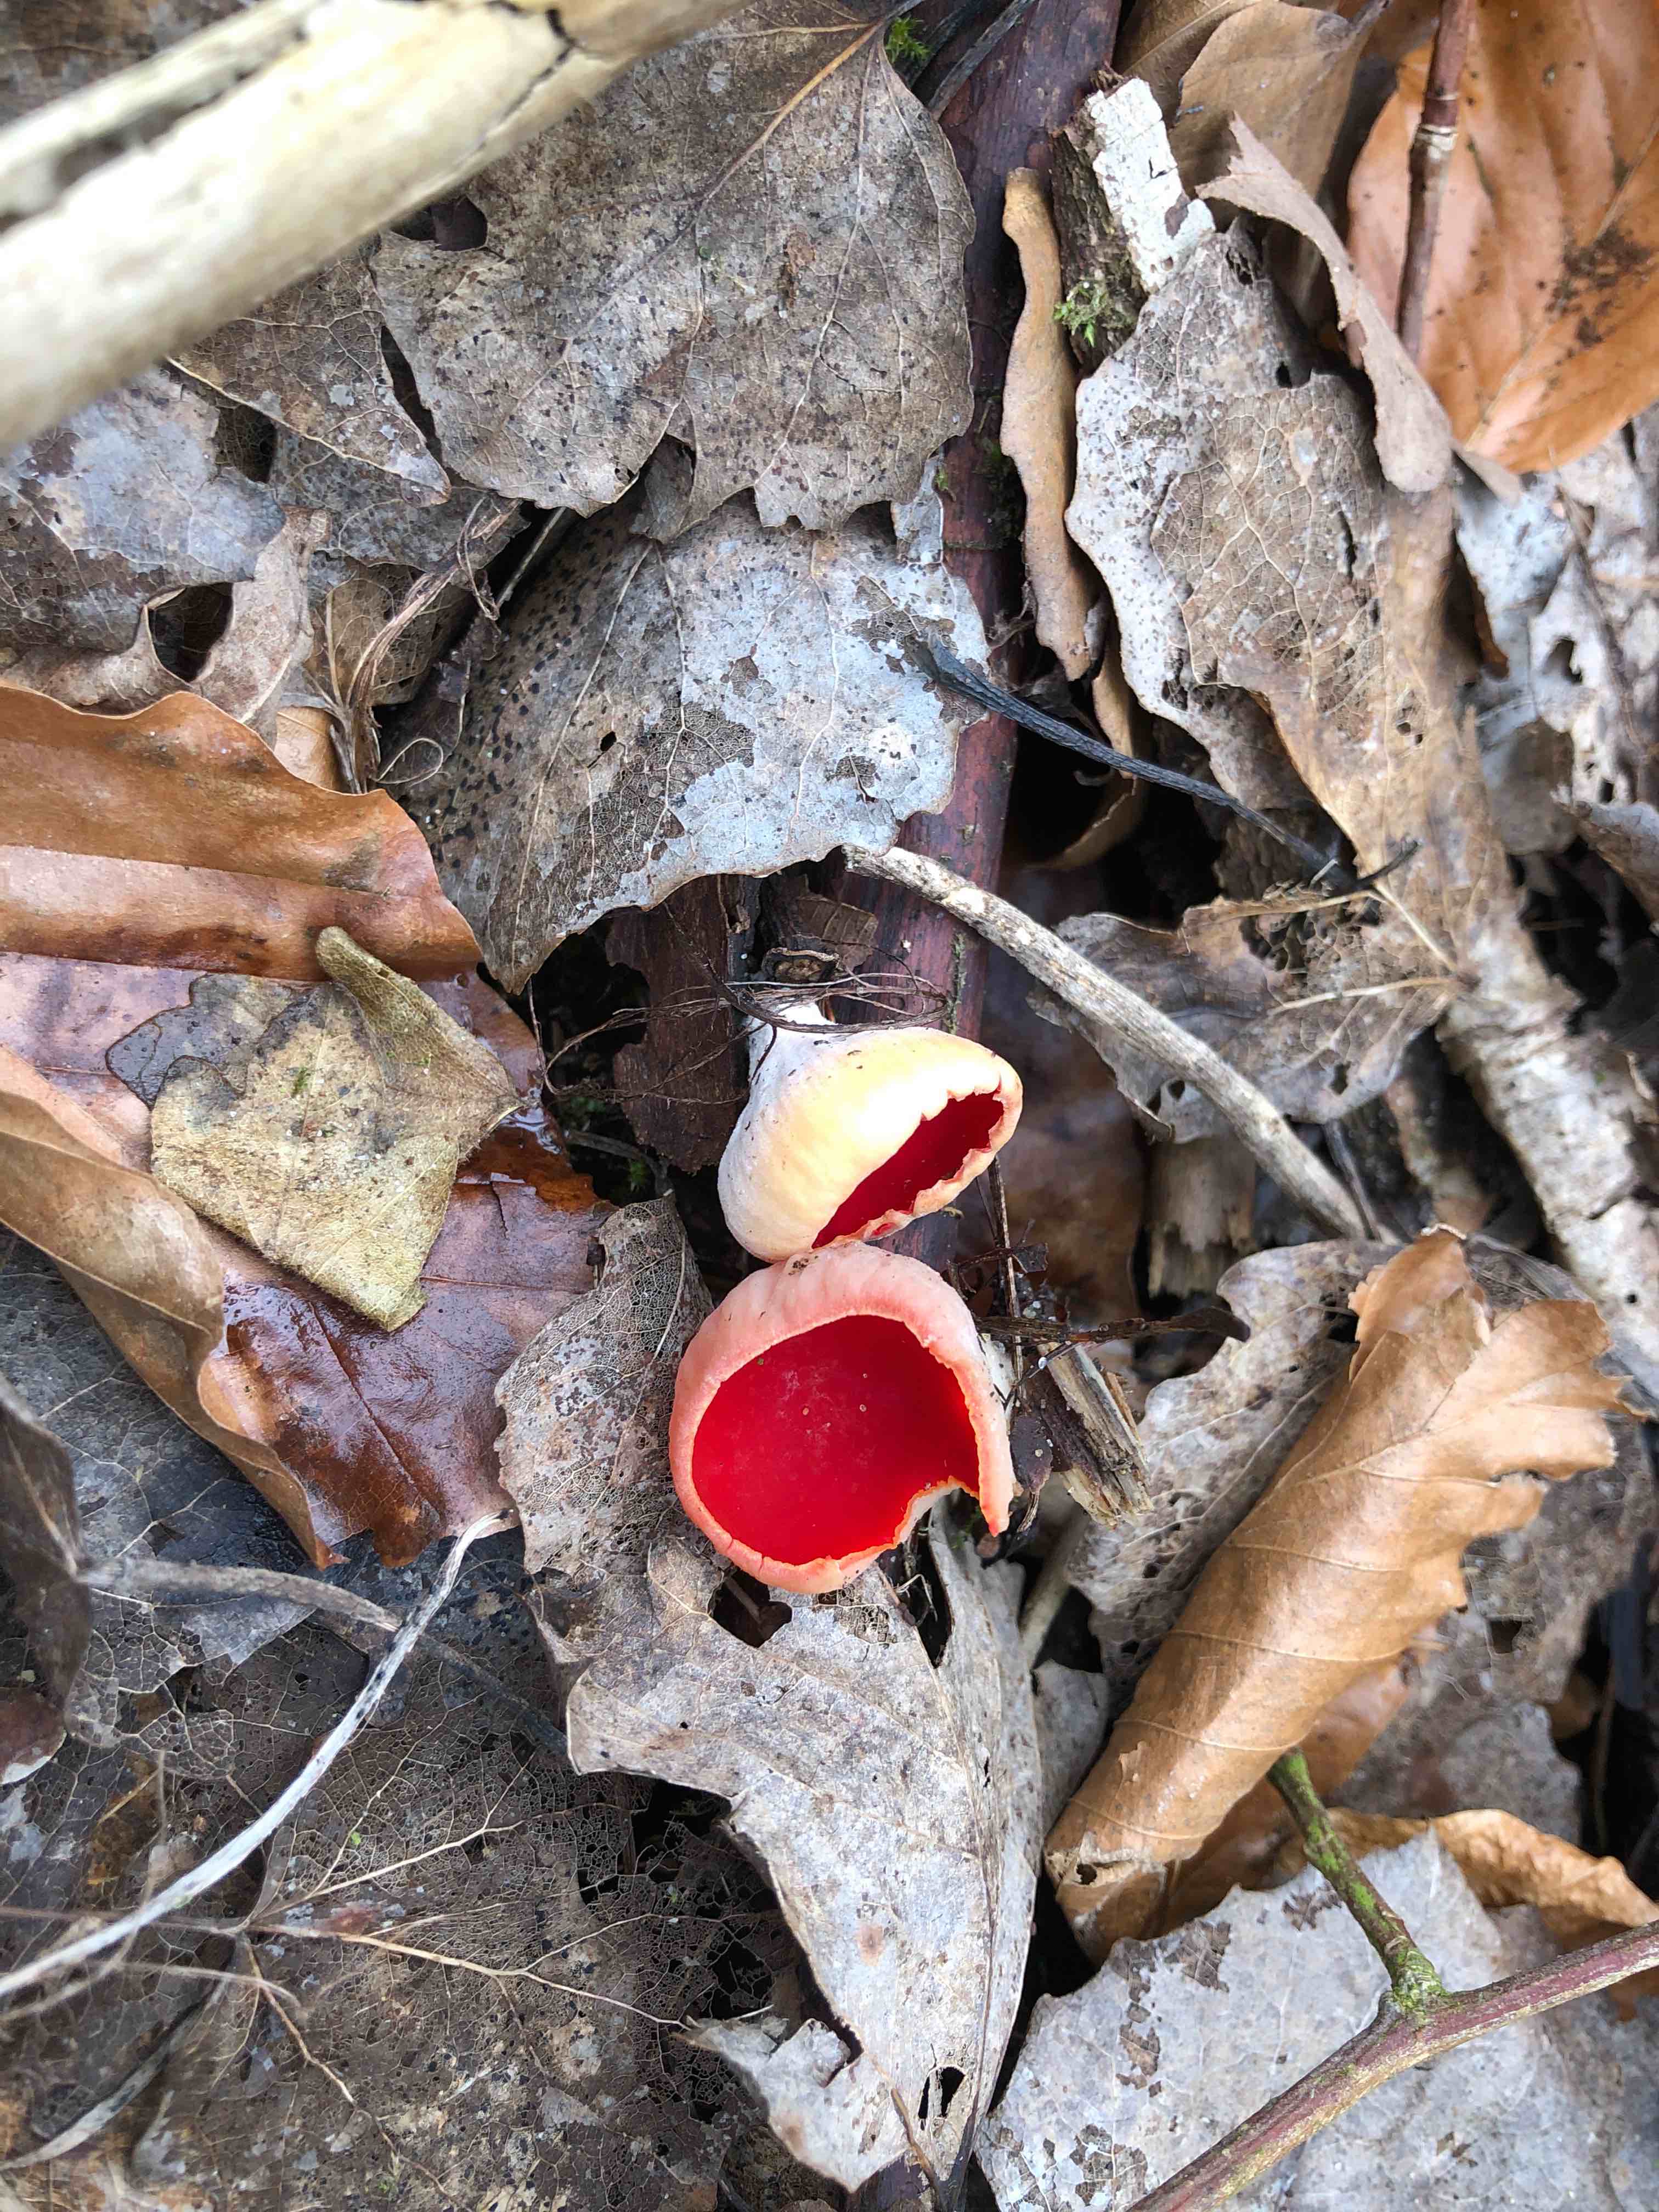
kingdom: Fungi
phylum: Ascomycota
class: Pezizomycetes
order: Pezizales
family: Sarcoscyphaceae
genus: Sarcoscypha
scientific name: Sarcoscypha austriaca
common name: krølhåret pragtbæger
